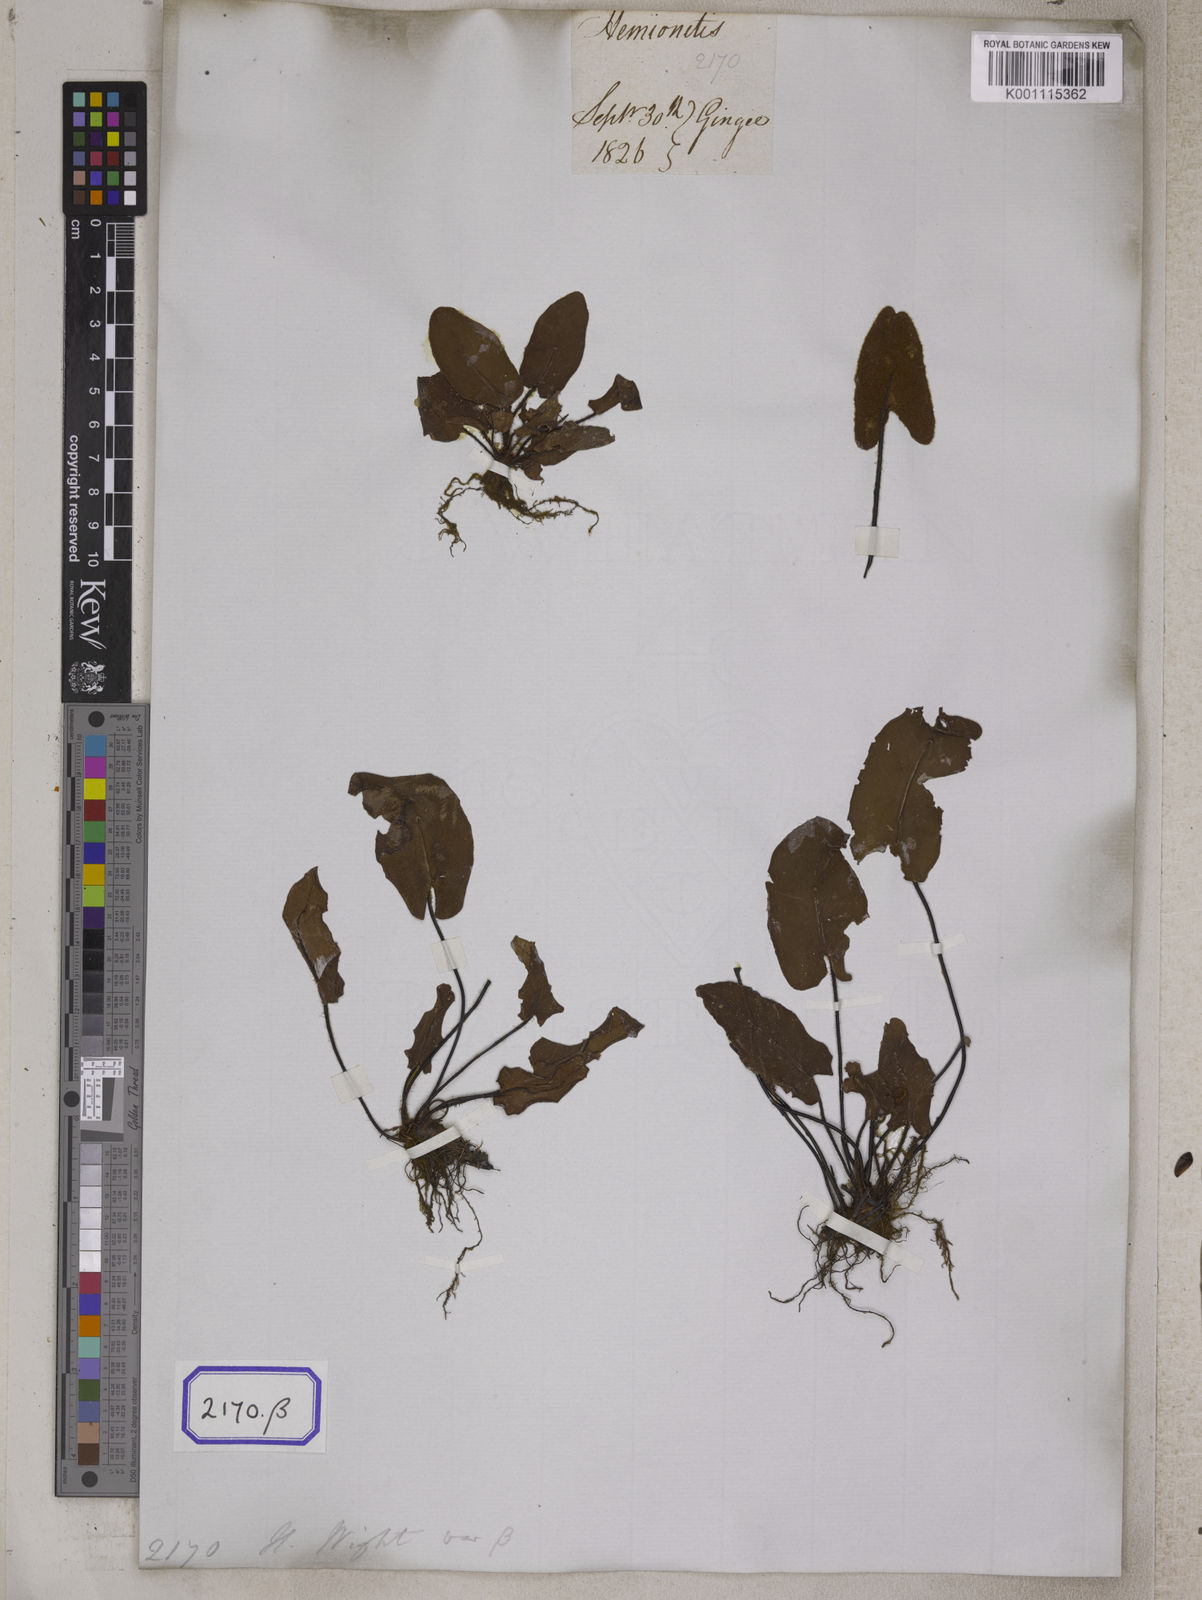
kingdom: Plantae
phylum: Tracheophyta
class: Polypodiopsida
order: Polypodiales
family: Pteridaceae
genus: Hemionitis
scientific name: Hemionitis
